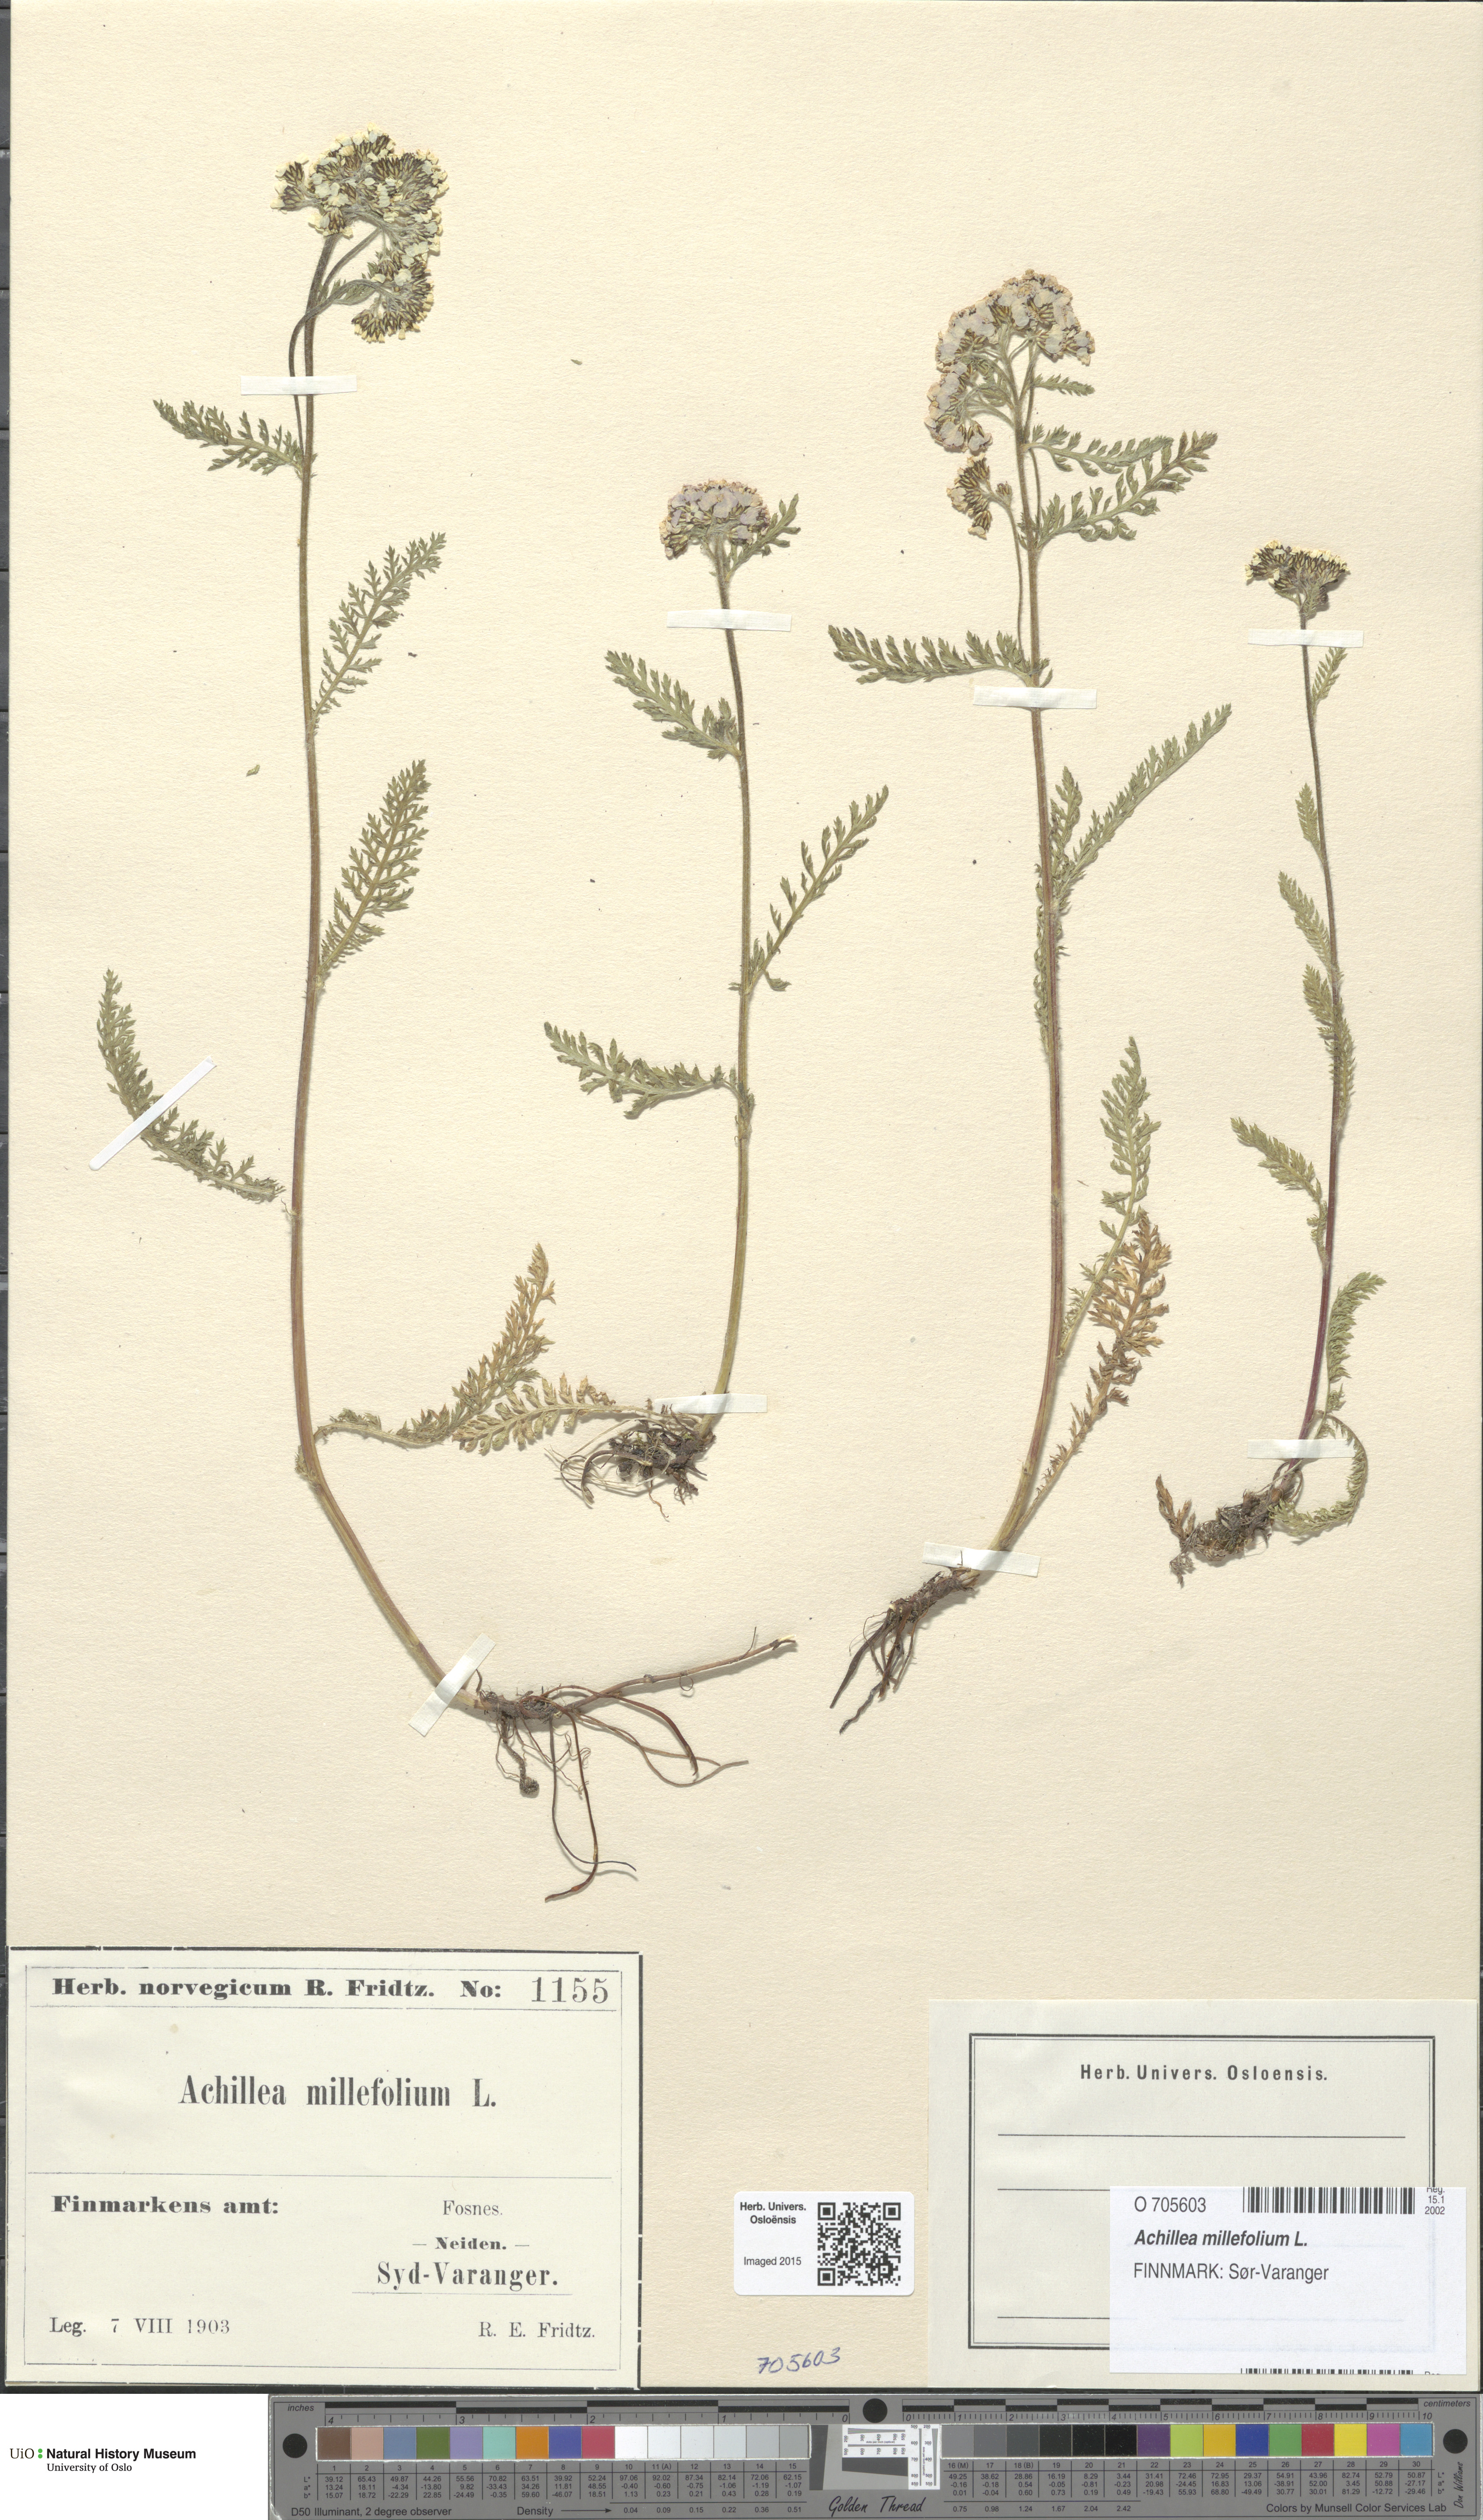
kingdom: Plantae
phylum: Tracheophyta
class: Magnoliopsida
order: Asterales
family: Asteraceae
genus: Achillea
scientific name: Achillea millefolium
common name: Yarrow
